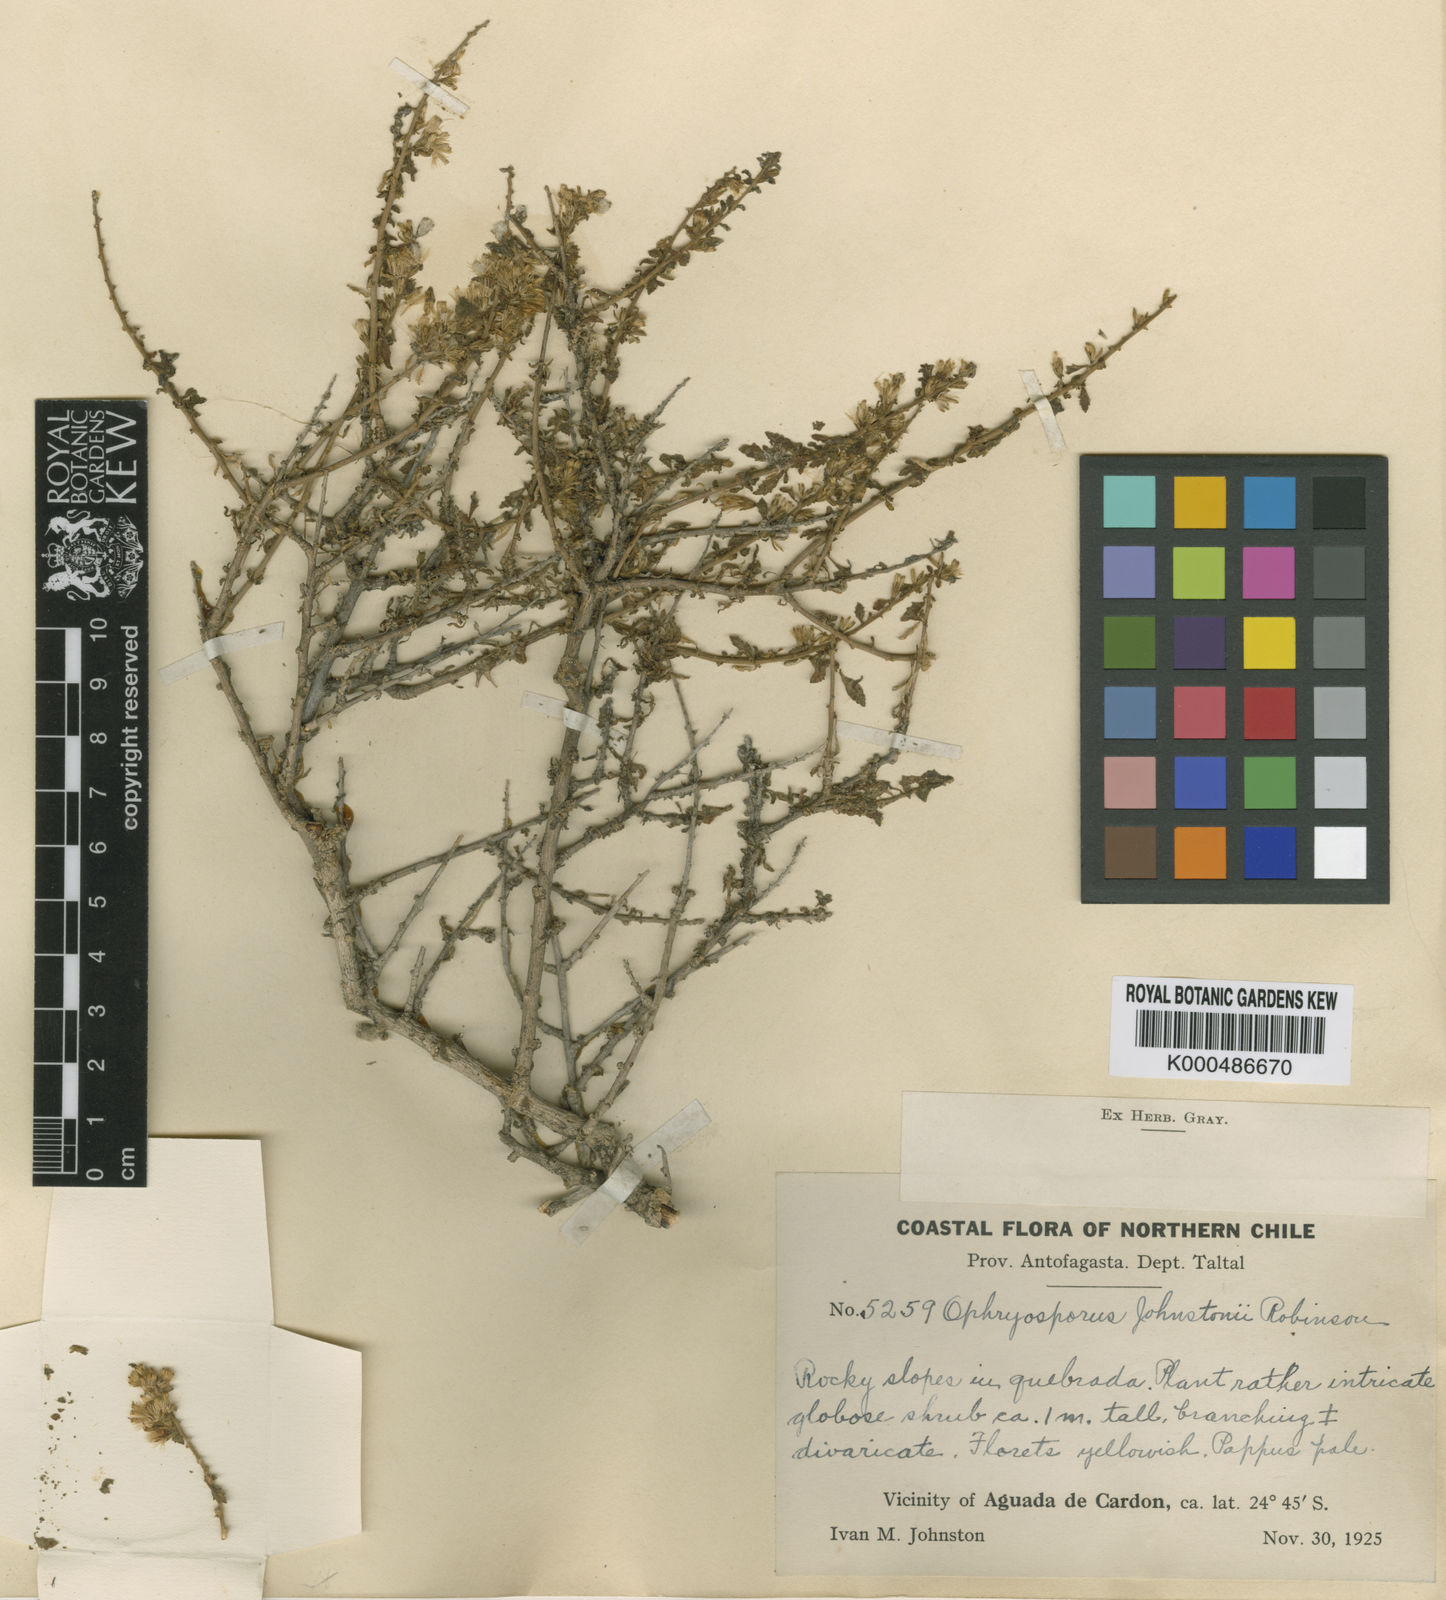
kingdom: Plantae
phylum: Tracheophyta
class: Magnoliopsida
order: Asterales
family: Asteraceae
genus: Ophryosporus
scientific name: Ophryosporus johnstonii
